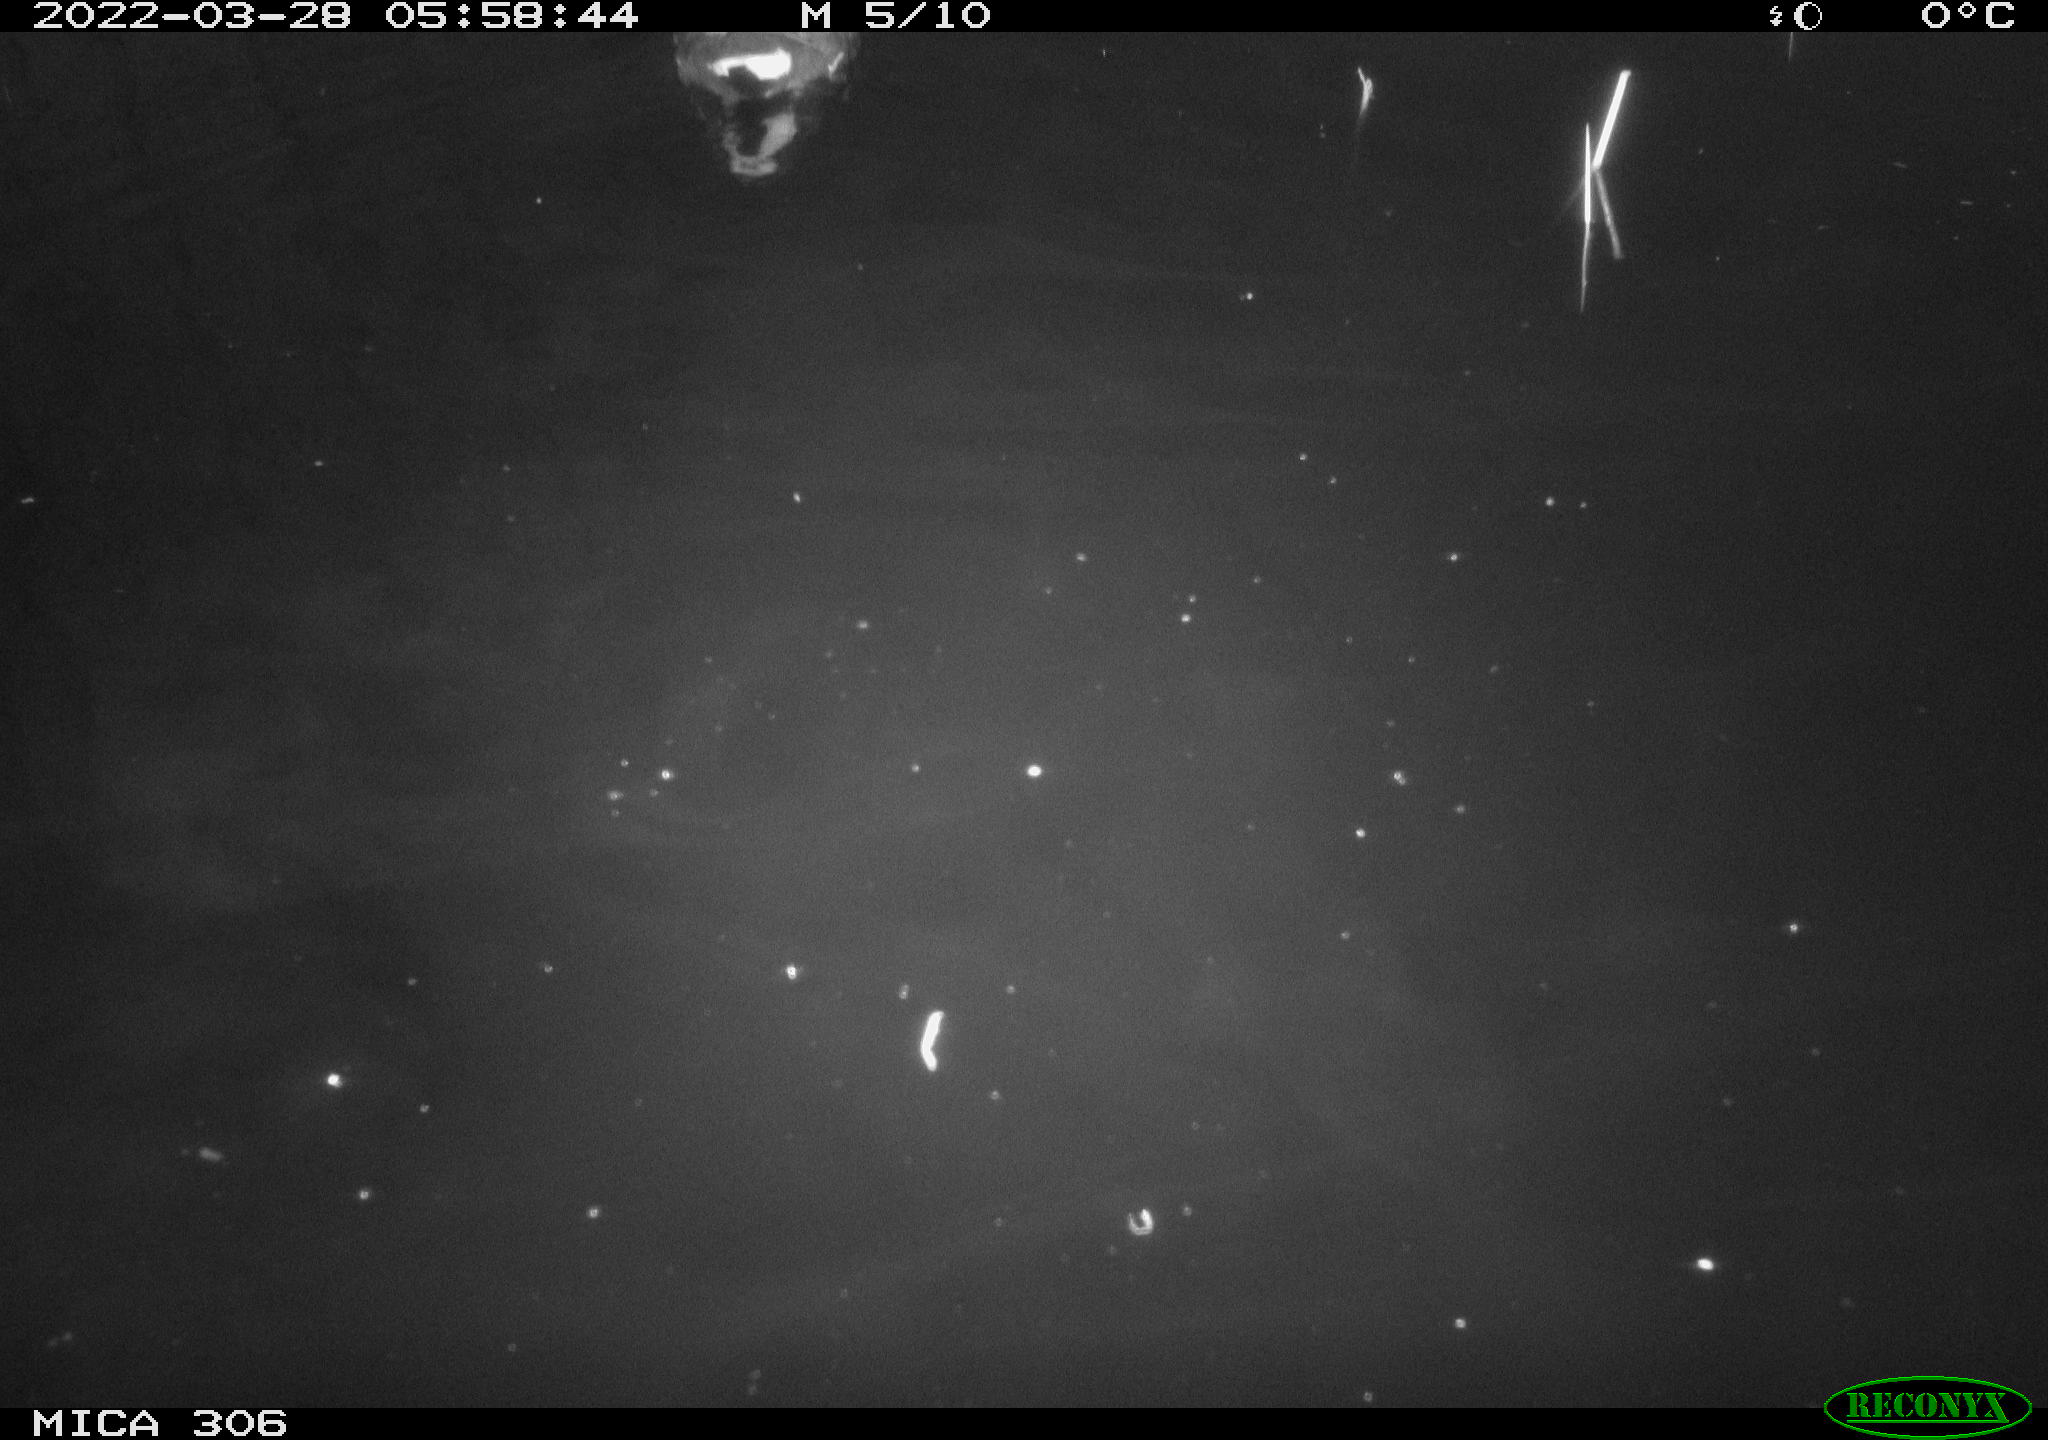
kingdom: Animalia
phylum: Chordata
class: Aves
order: Gruiformes
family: Rallidae
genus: Gallinula
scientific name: Gallinula chloropus
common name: Common moorhen
